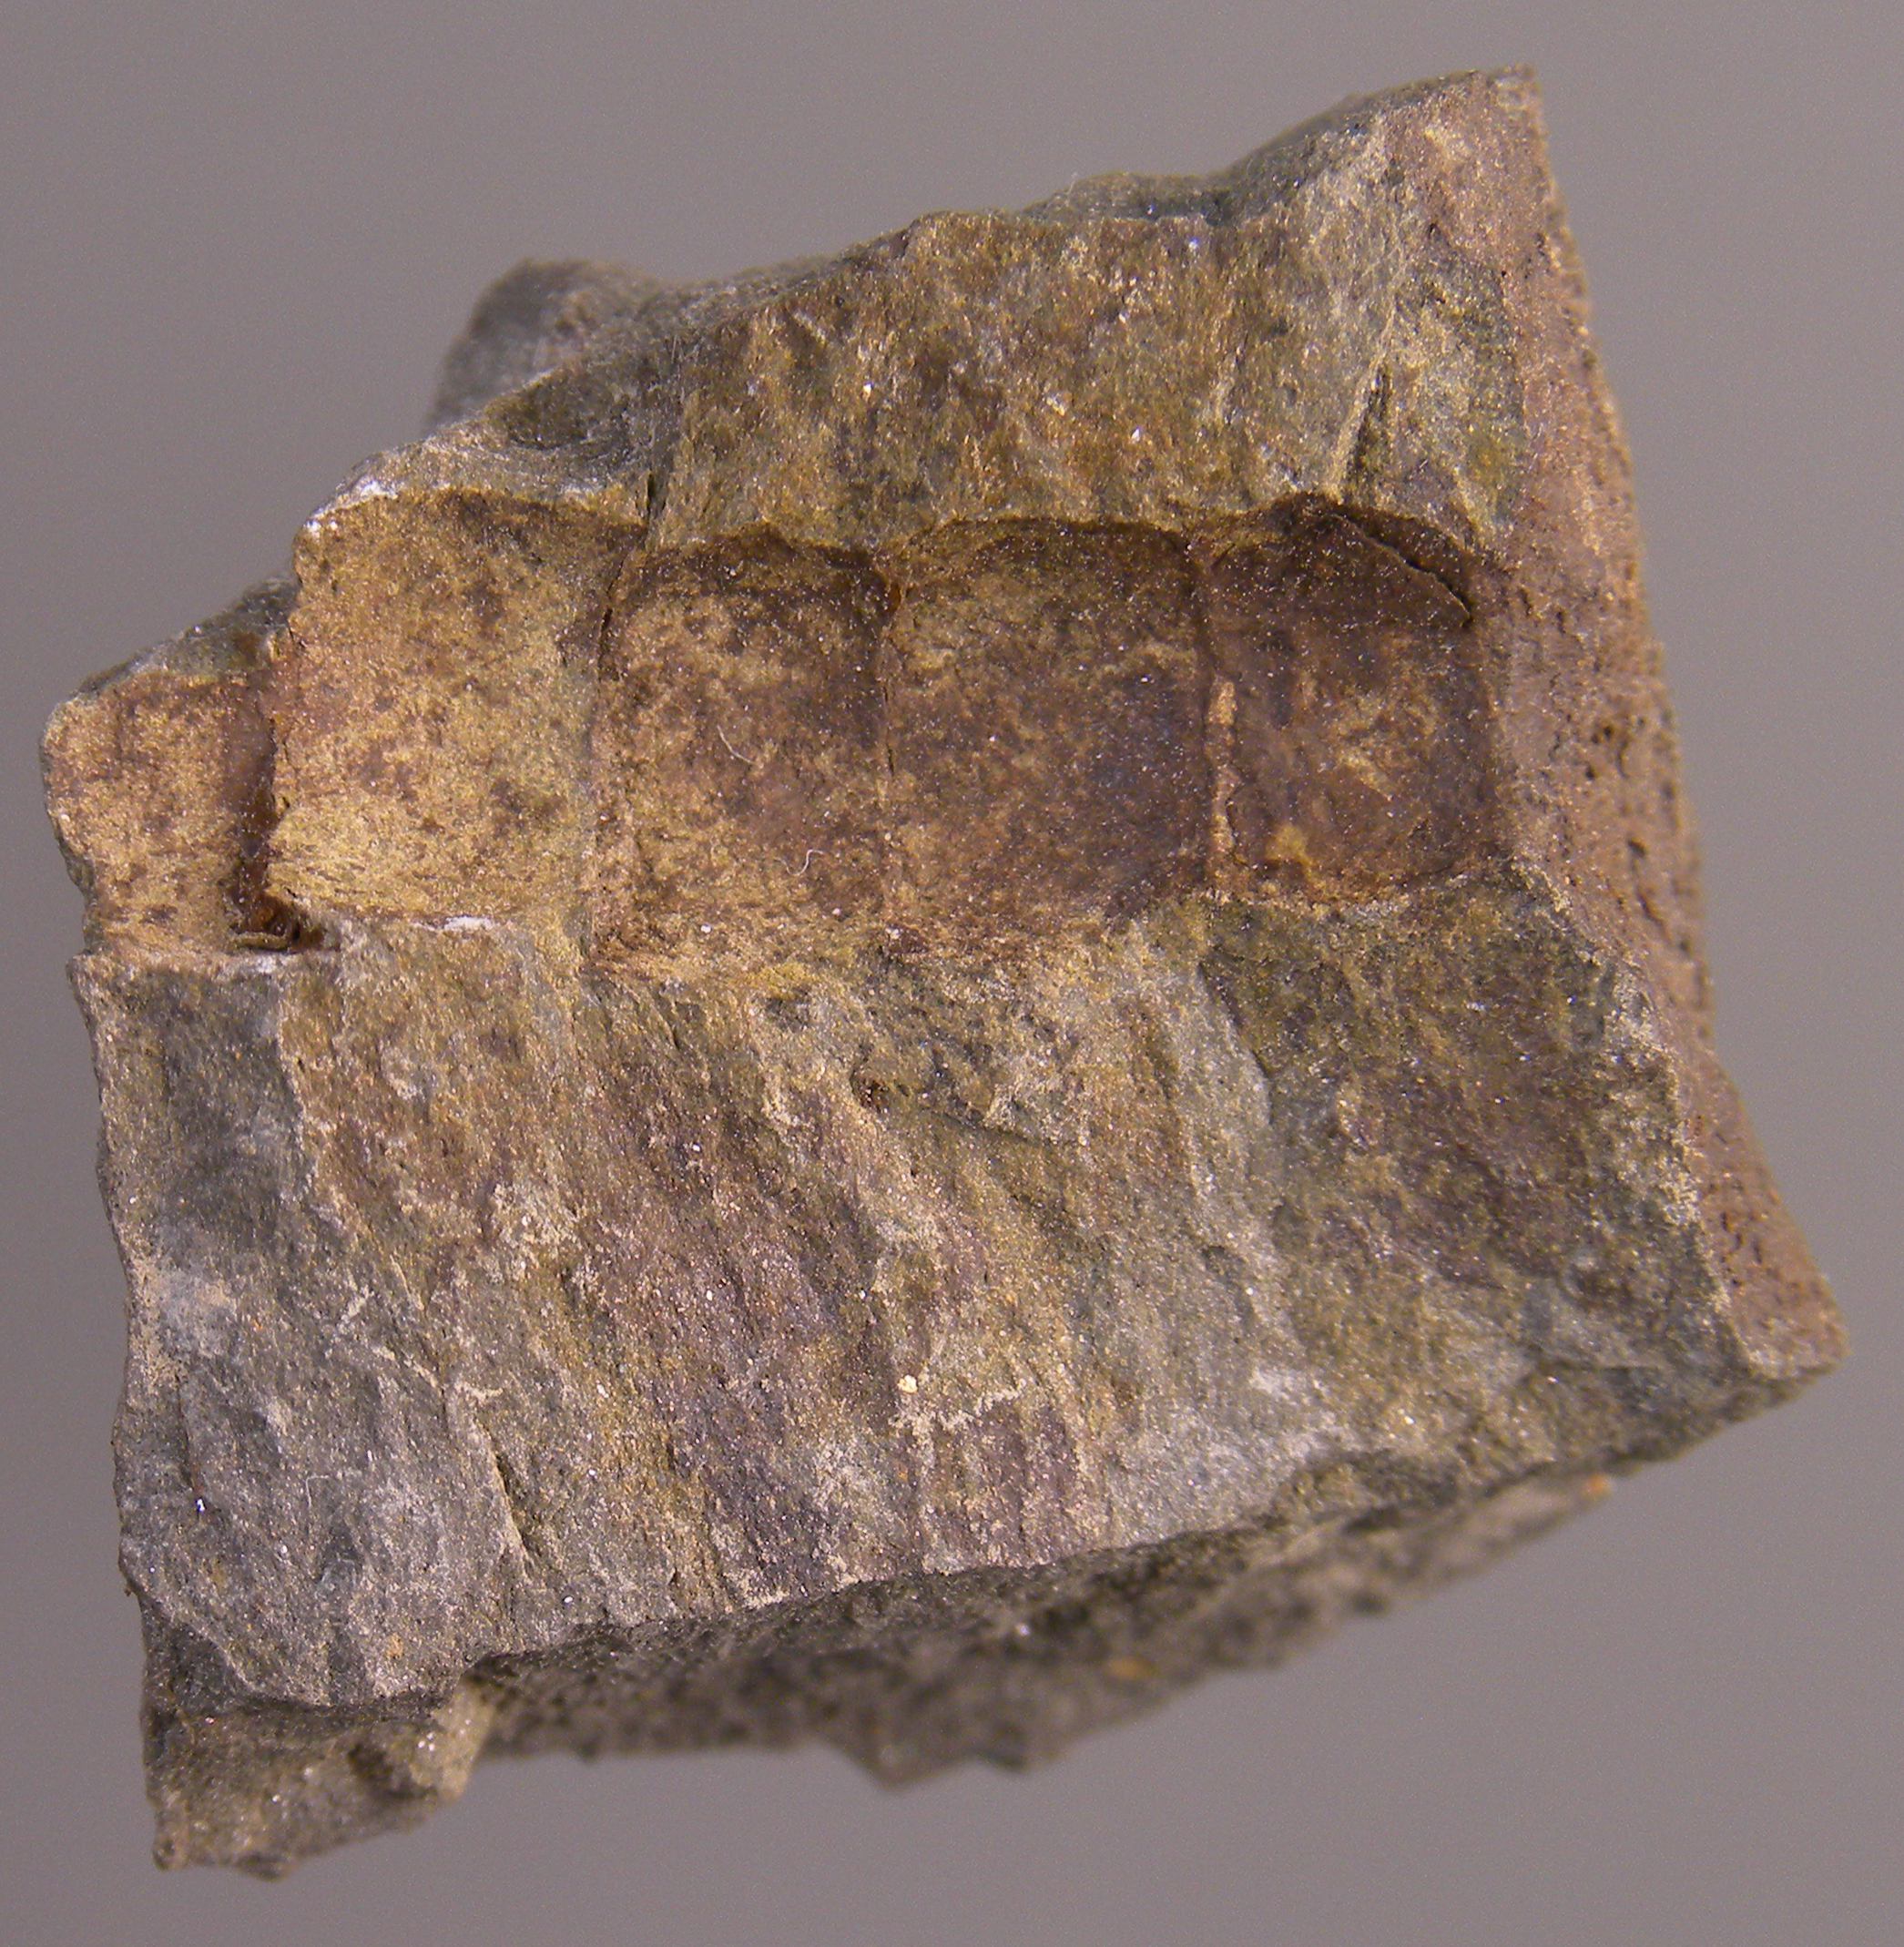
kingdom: Animalia
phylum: Echinodermata
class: Crinoidea
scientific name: Crinoidea
